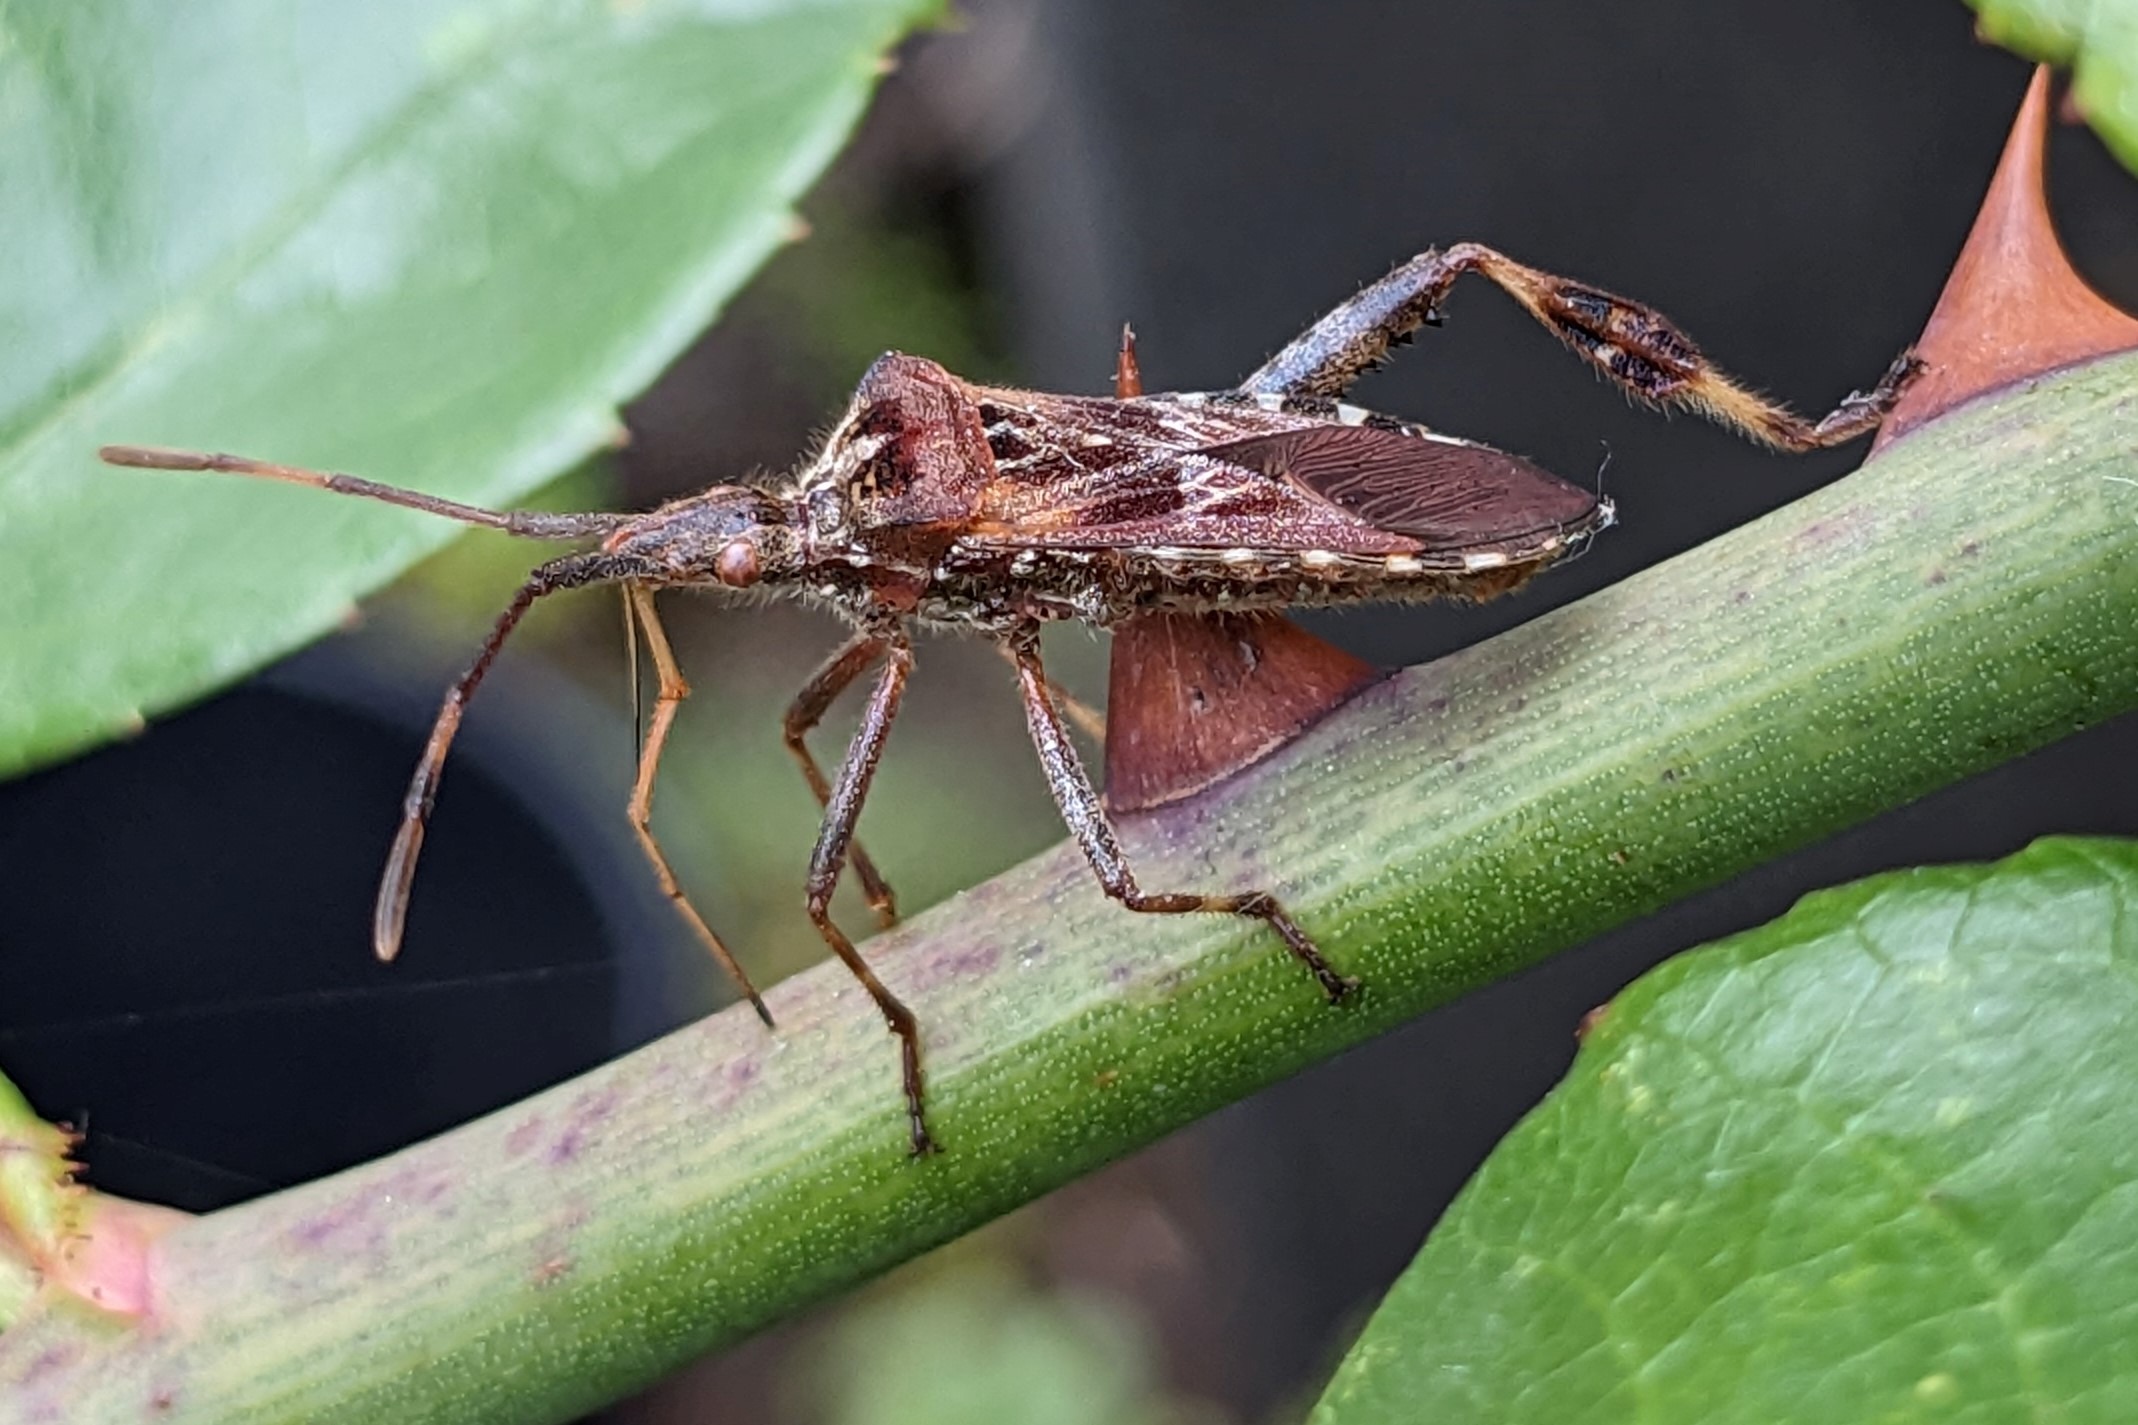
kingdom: Animalia
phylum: Arthropoda
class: Insecta
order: Hemiptera
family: Coreidae
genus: Leptoglossus
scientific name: Leptoglossus occidentalis
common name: Amerikansk fyrretæge
